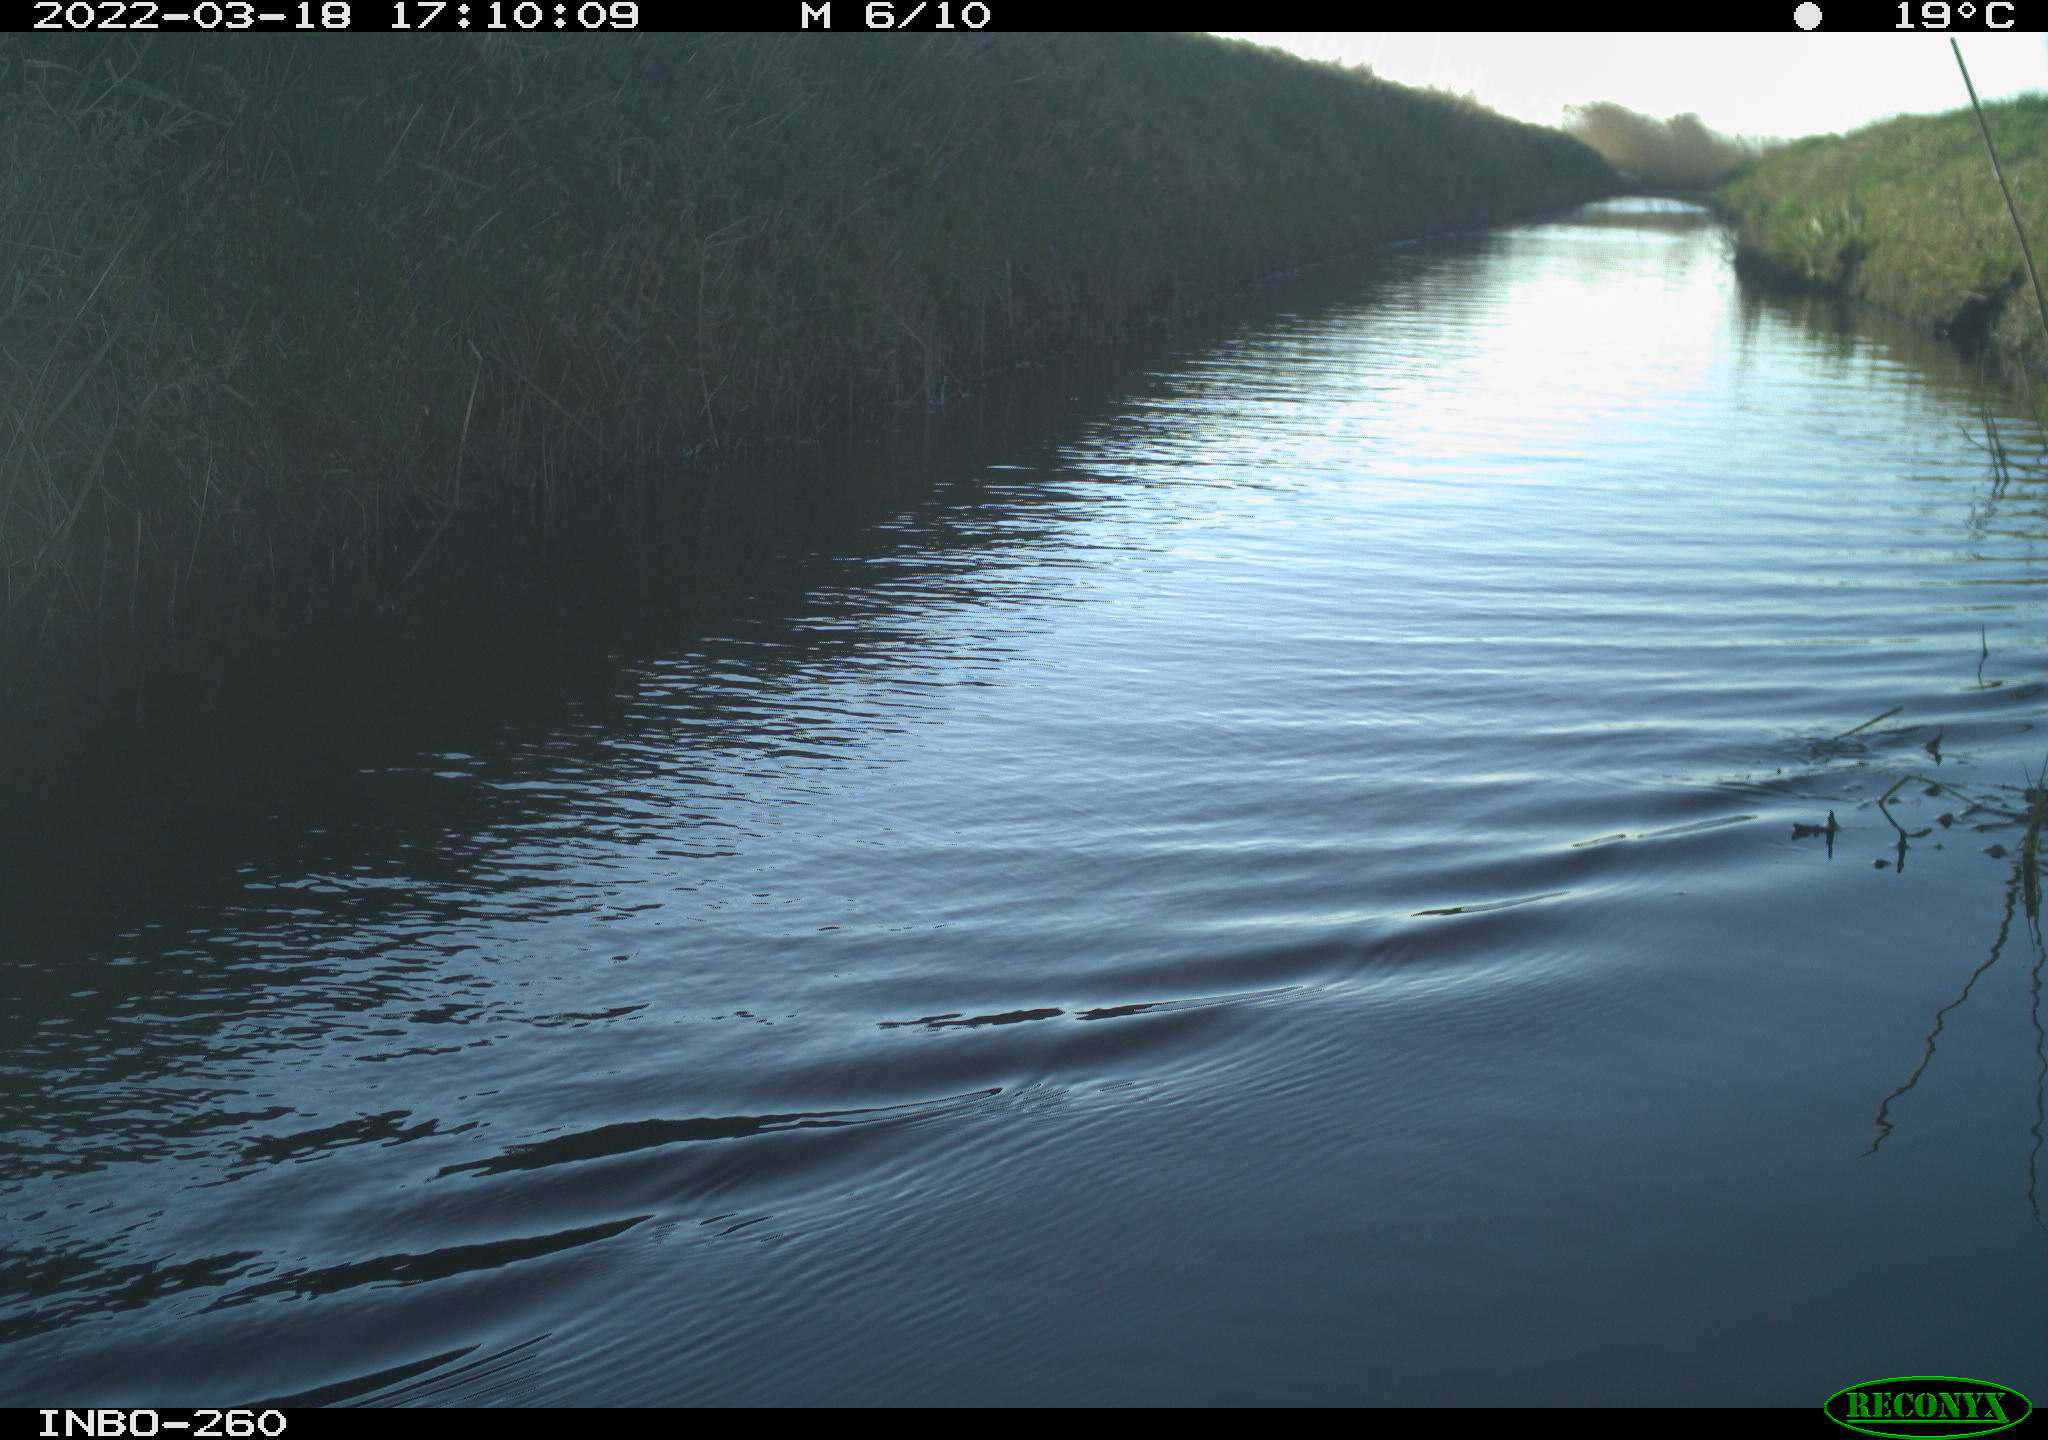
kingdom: Animalia
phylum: Chordata
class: Aves
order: Gruiformes
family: Rallidae
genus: Fulica
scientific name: Fulica atra
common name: Eurasian coot
